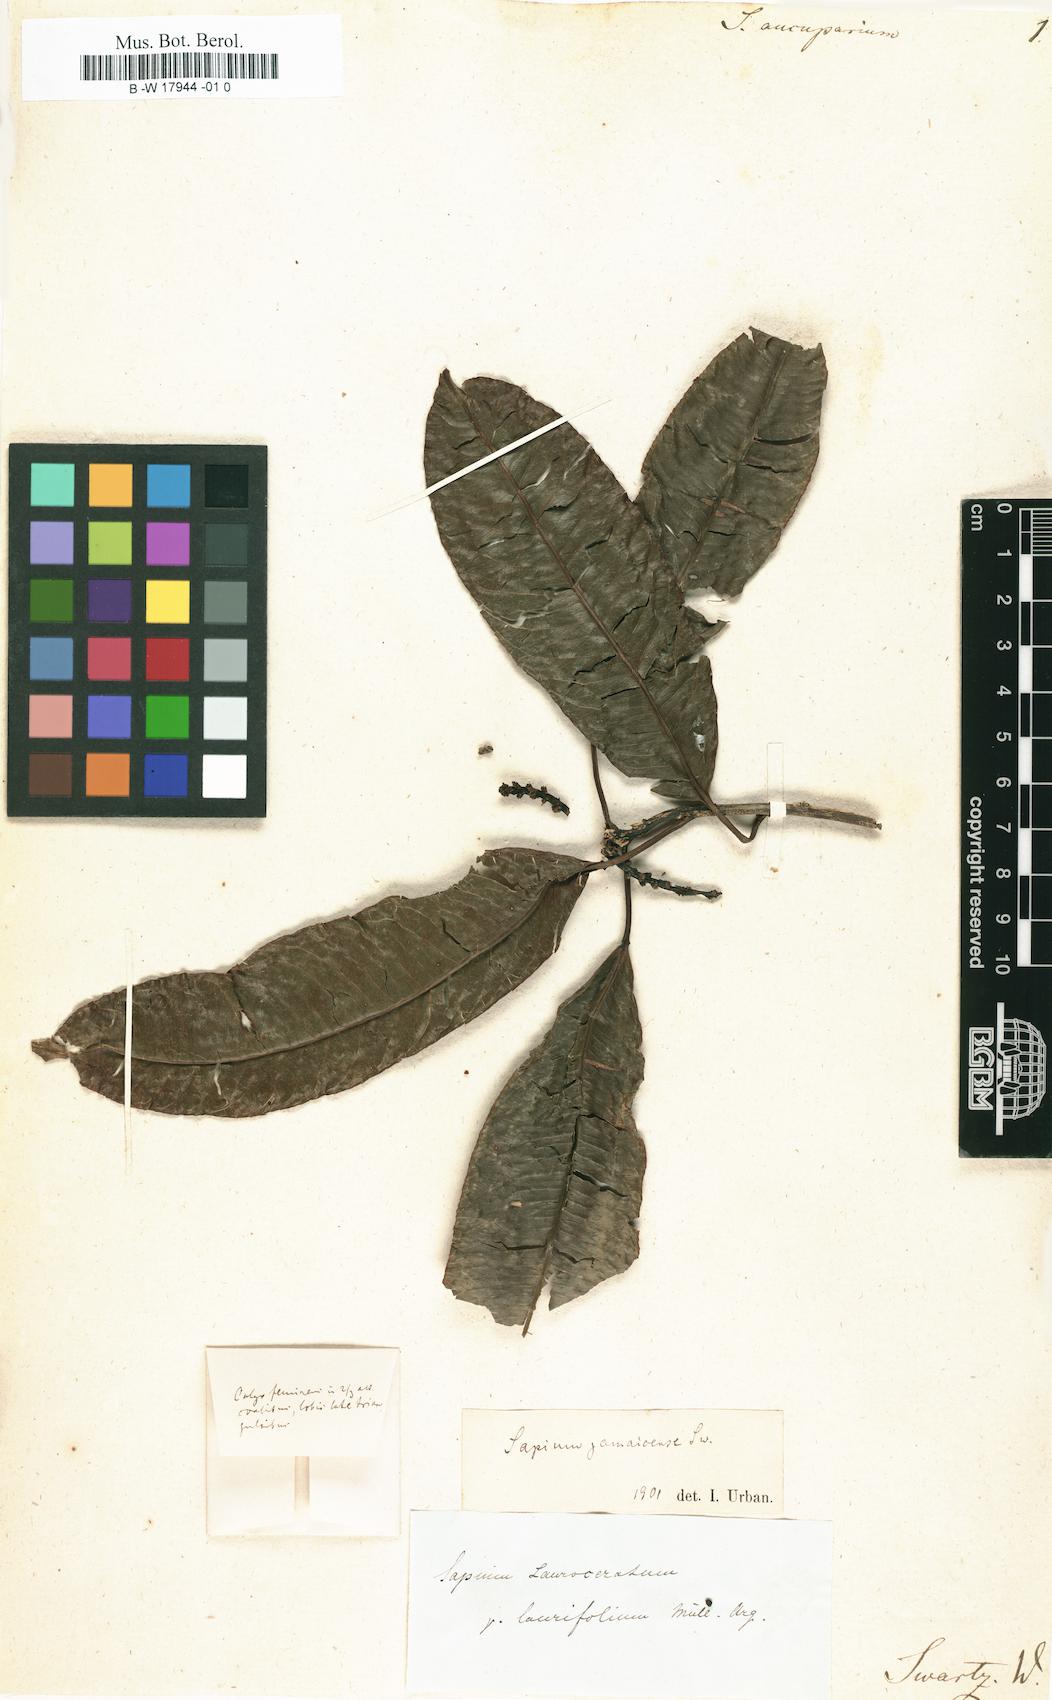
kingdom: Plantae
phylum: Tracheophyta
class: Magnoliopsida
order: Malpighiales
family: Euphorbiaceae
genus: Sapium
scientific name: Sapium glandulosum
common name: Milktree
